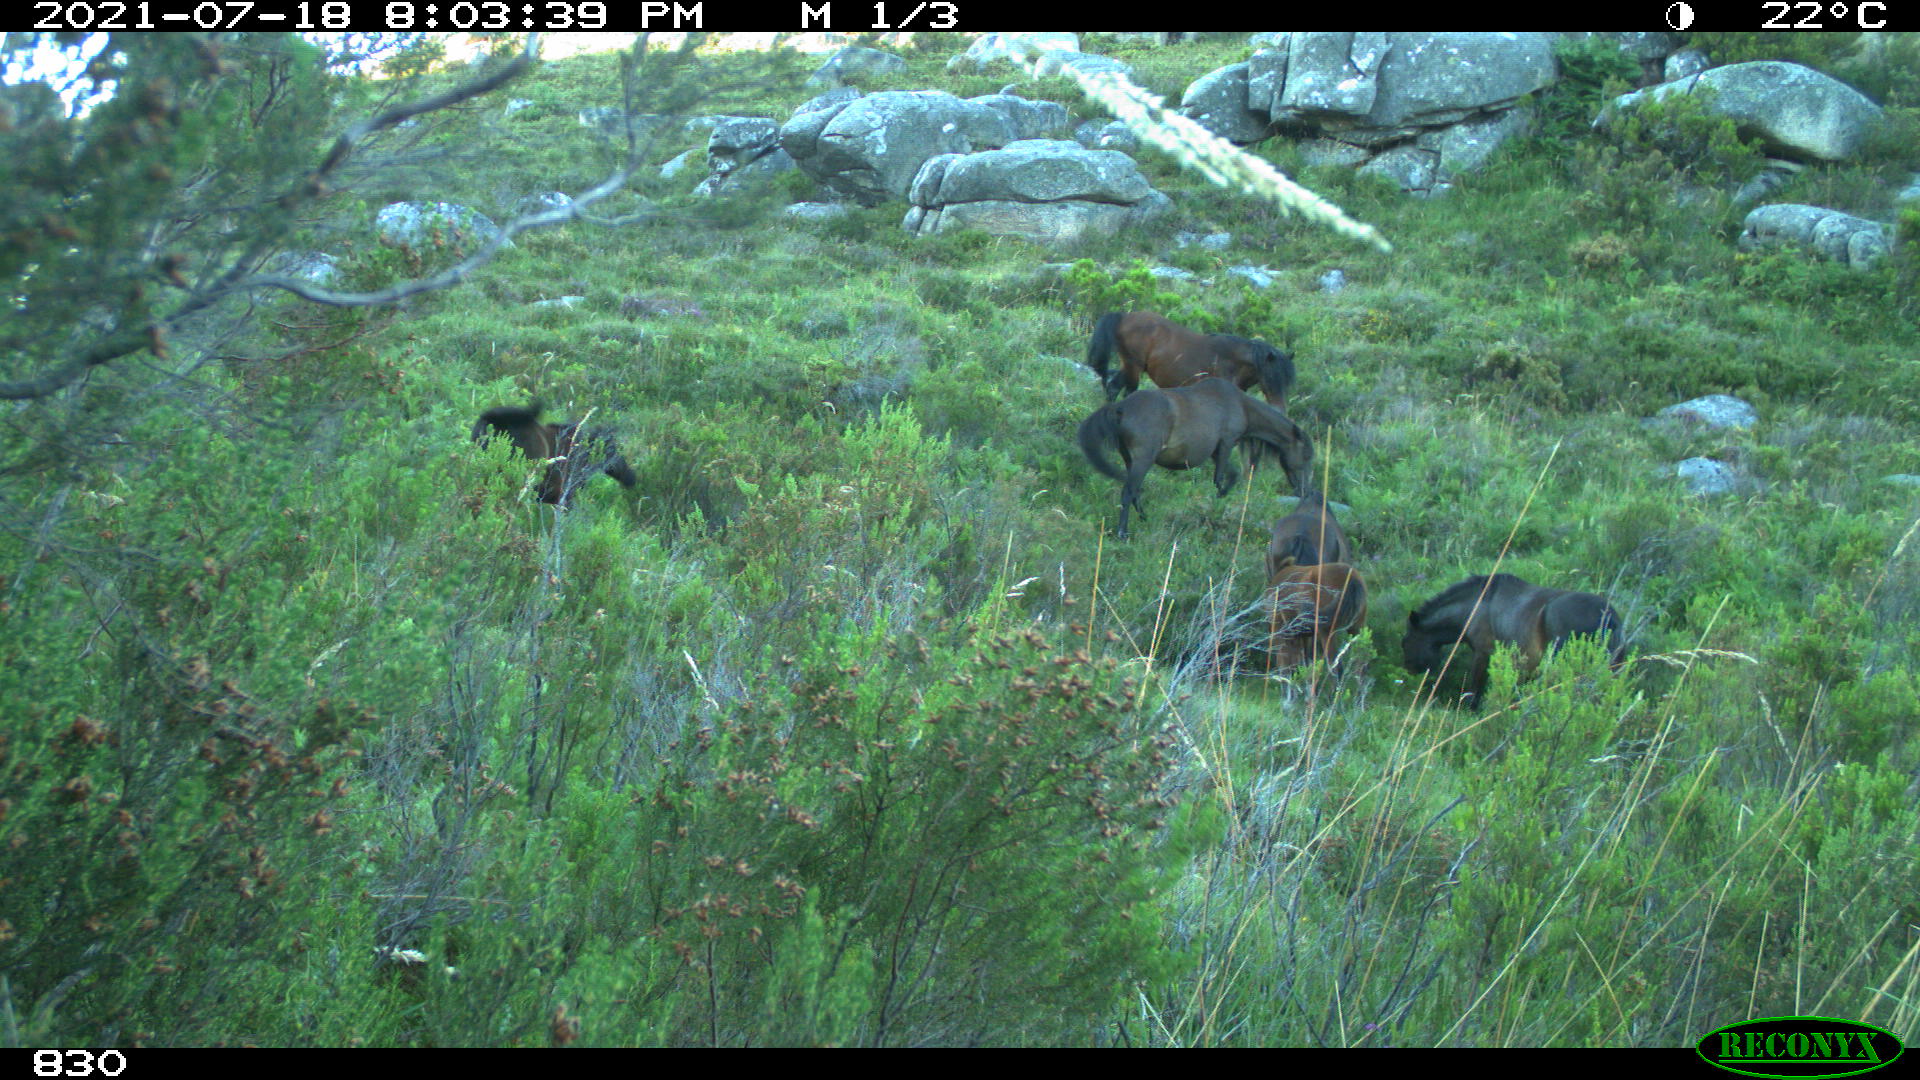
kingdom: Animalia
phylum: Chordata
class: Mammalia
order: Perissodactyla
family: Equidae
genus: Equus
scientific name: Equus caballus
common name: Horse
